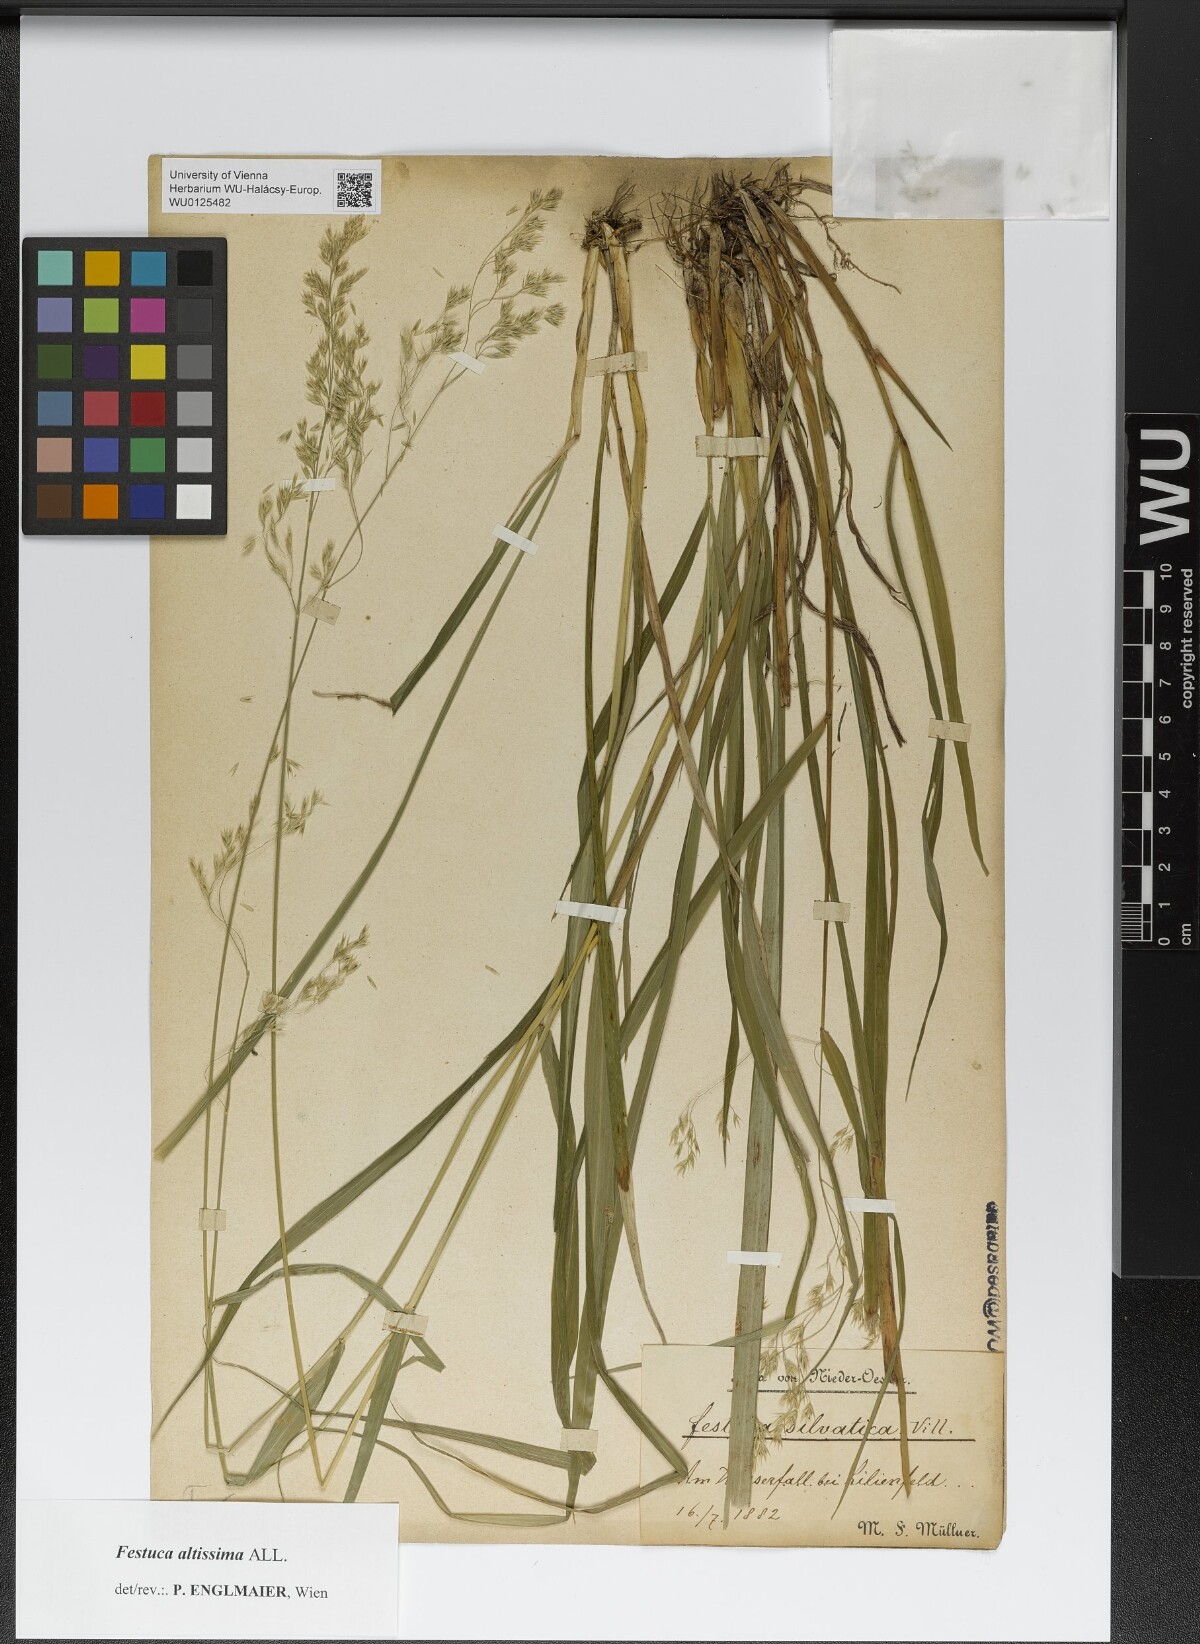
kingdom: Plantae
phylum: Tracheophyta
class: Liliopsida
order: Poales
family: Poaceae
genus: Festuca
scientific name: Festuca altissima
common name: Wood fescue
